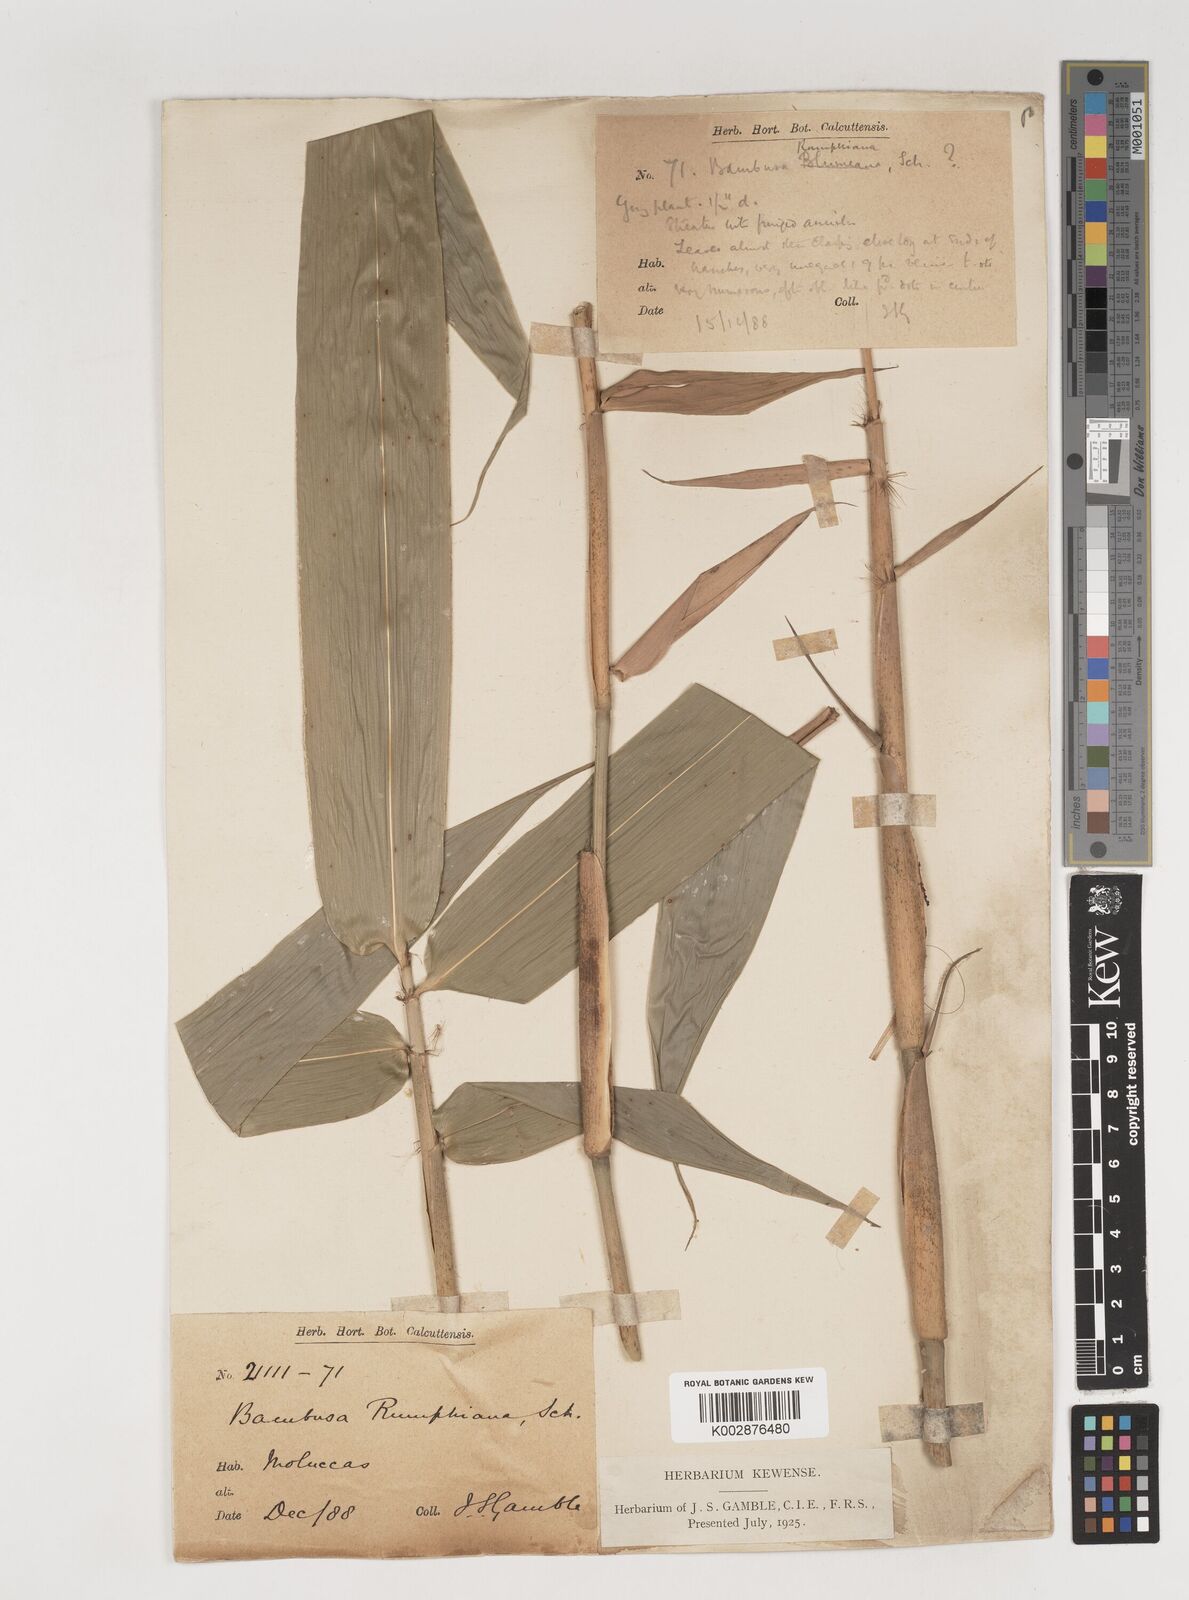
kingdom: Plantae
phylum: Tracheophyta
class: Liliopsida
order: Poales
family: Poaceae
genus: Neololeba
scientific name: Neololeba amahussana
